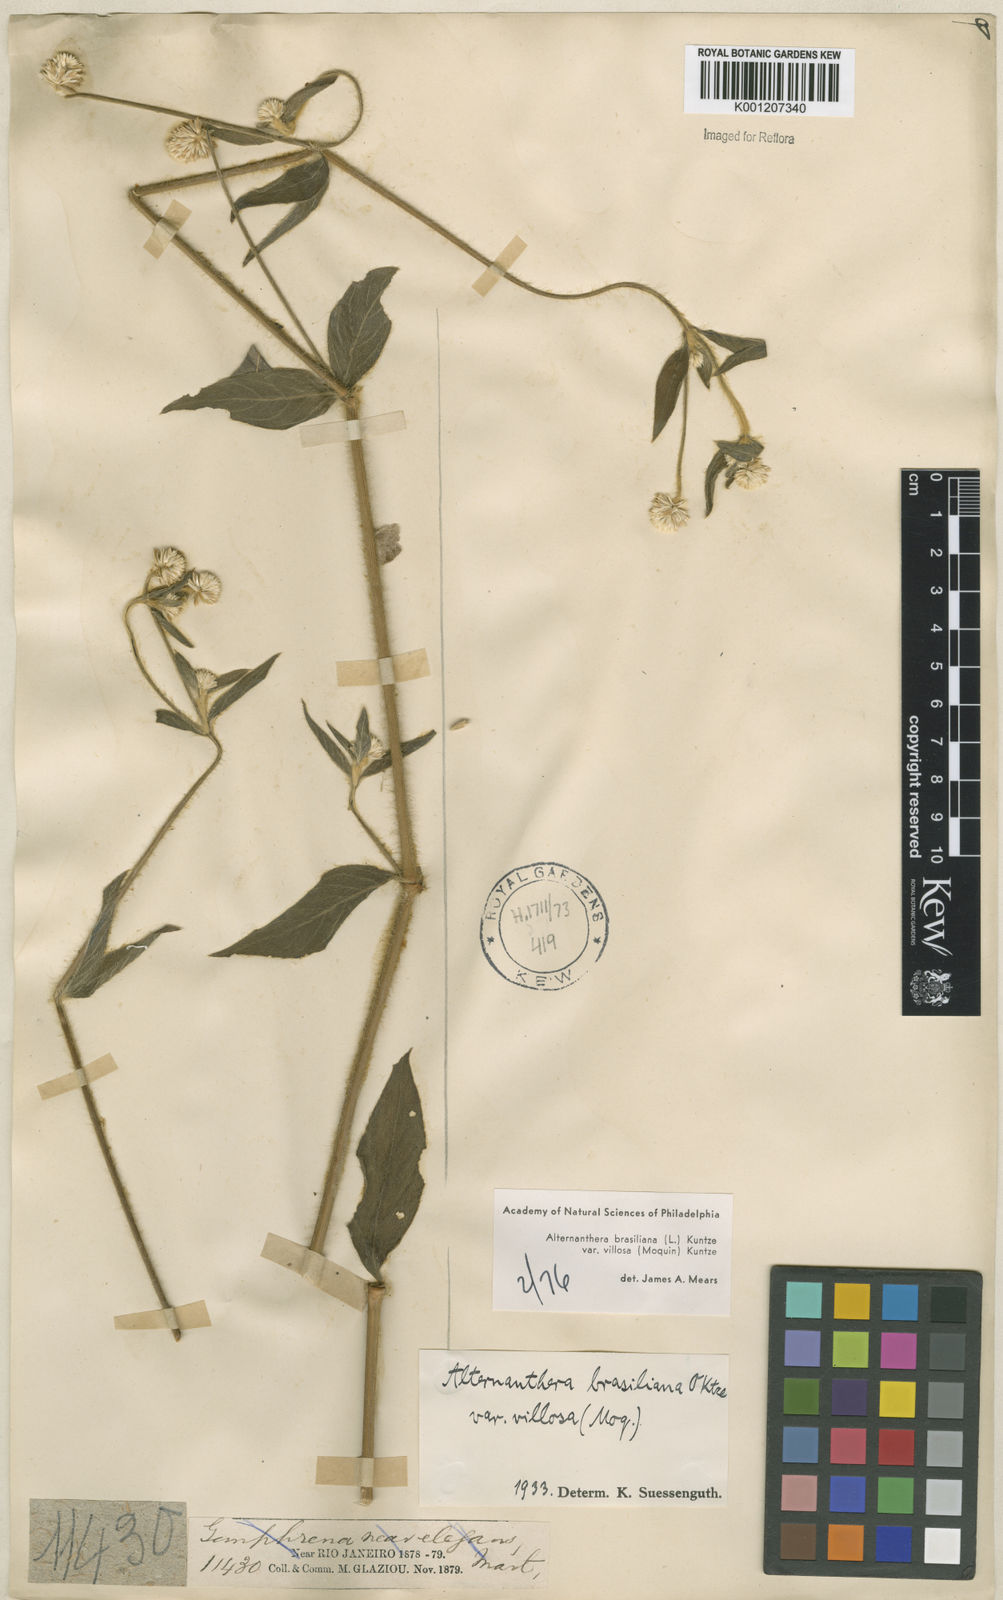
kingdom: Plantae
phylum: Tracheophyta
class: Magnoliopsida
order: Caryophyllales
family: Amaranthaceae
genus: Alternanthera
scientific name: Alternanthera ramosissima
